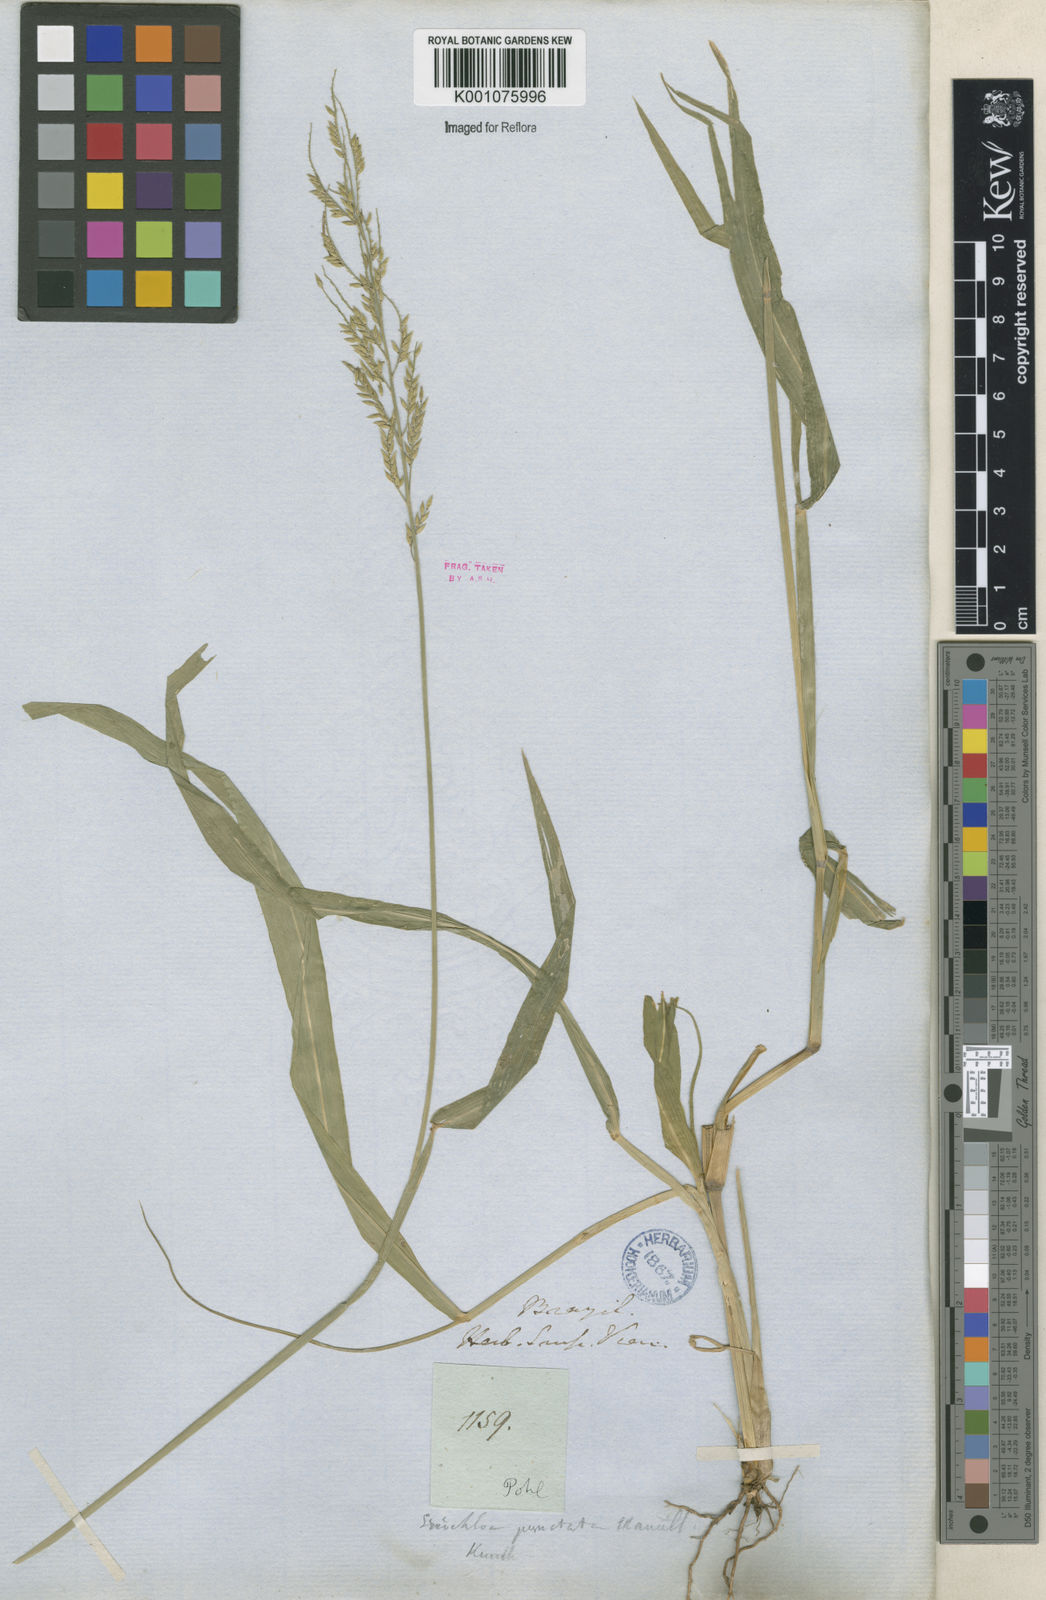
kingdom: Plantae
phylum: Tracheophyta
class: Liliopsida
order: Poales
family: Poaceae
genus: Eriochloa
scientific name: Eriochloa punctata
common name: Louisiana cupgrass
